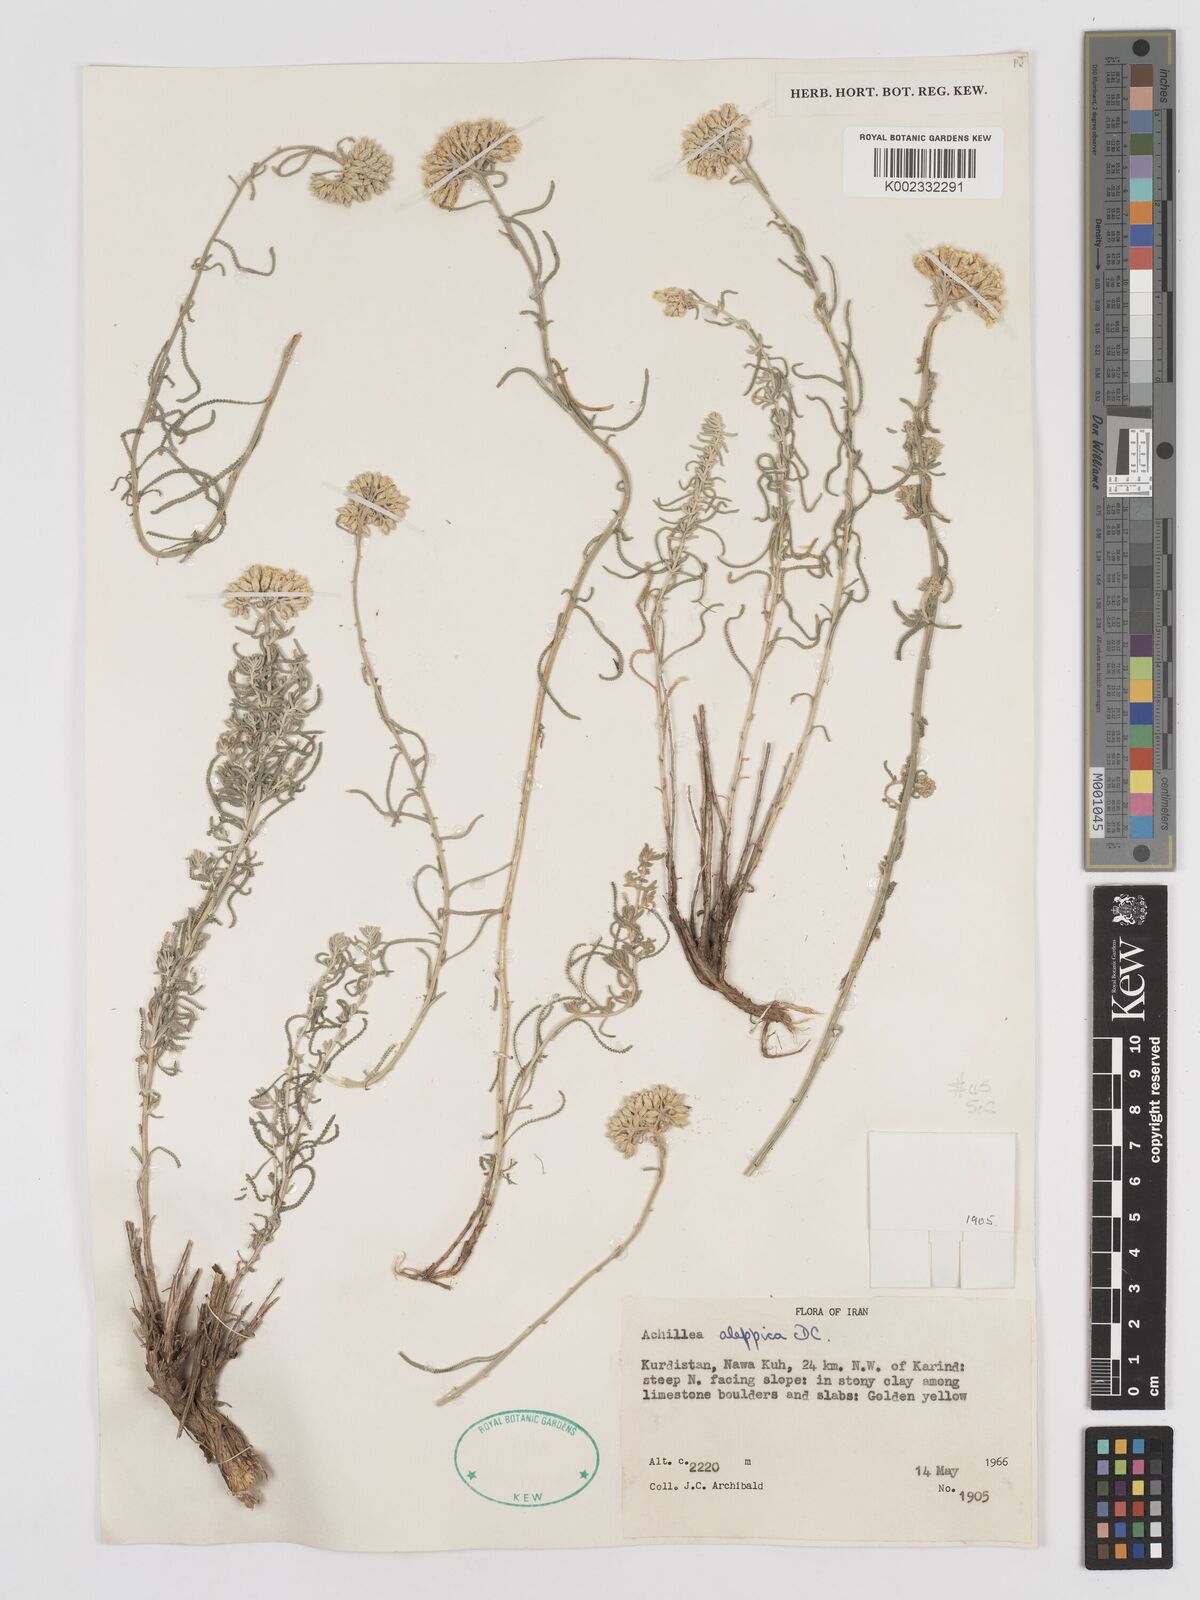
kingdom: Plantae
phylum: Tracheophyta
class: Magnoliopsida
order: Asterales
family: Asteraceae
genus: Achillea
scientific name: Achillea aleppica
